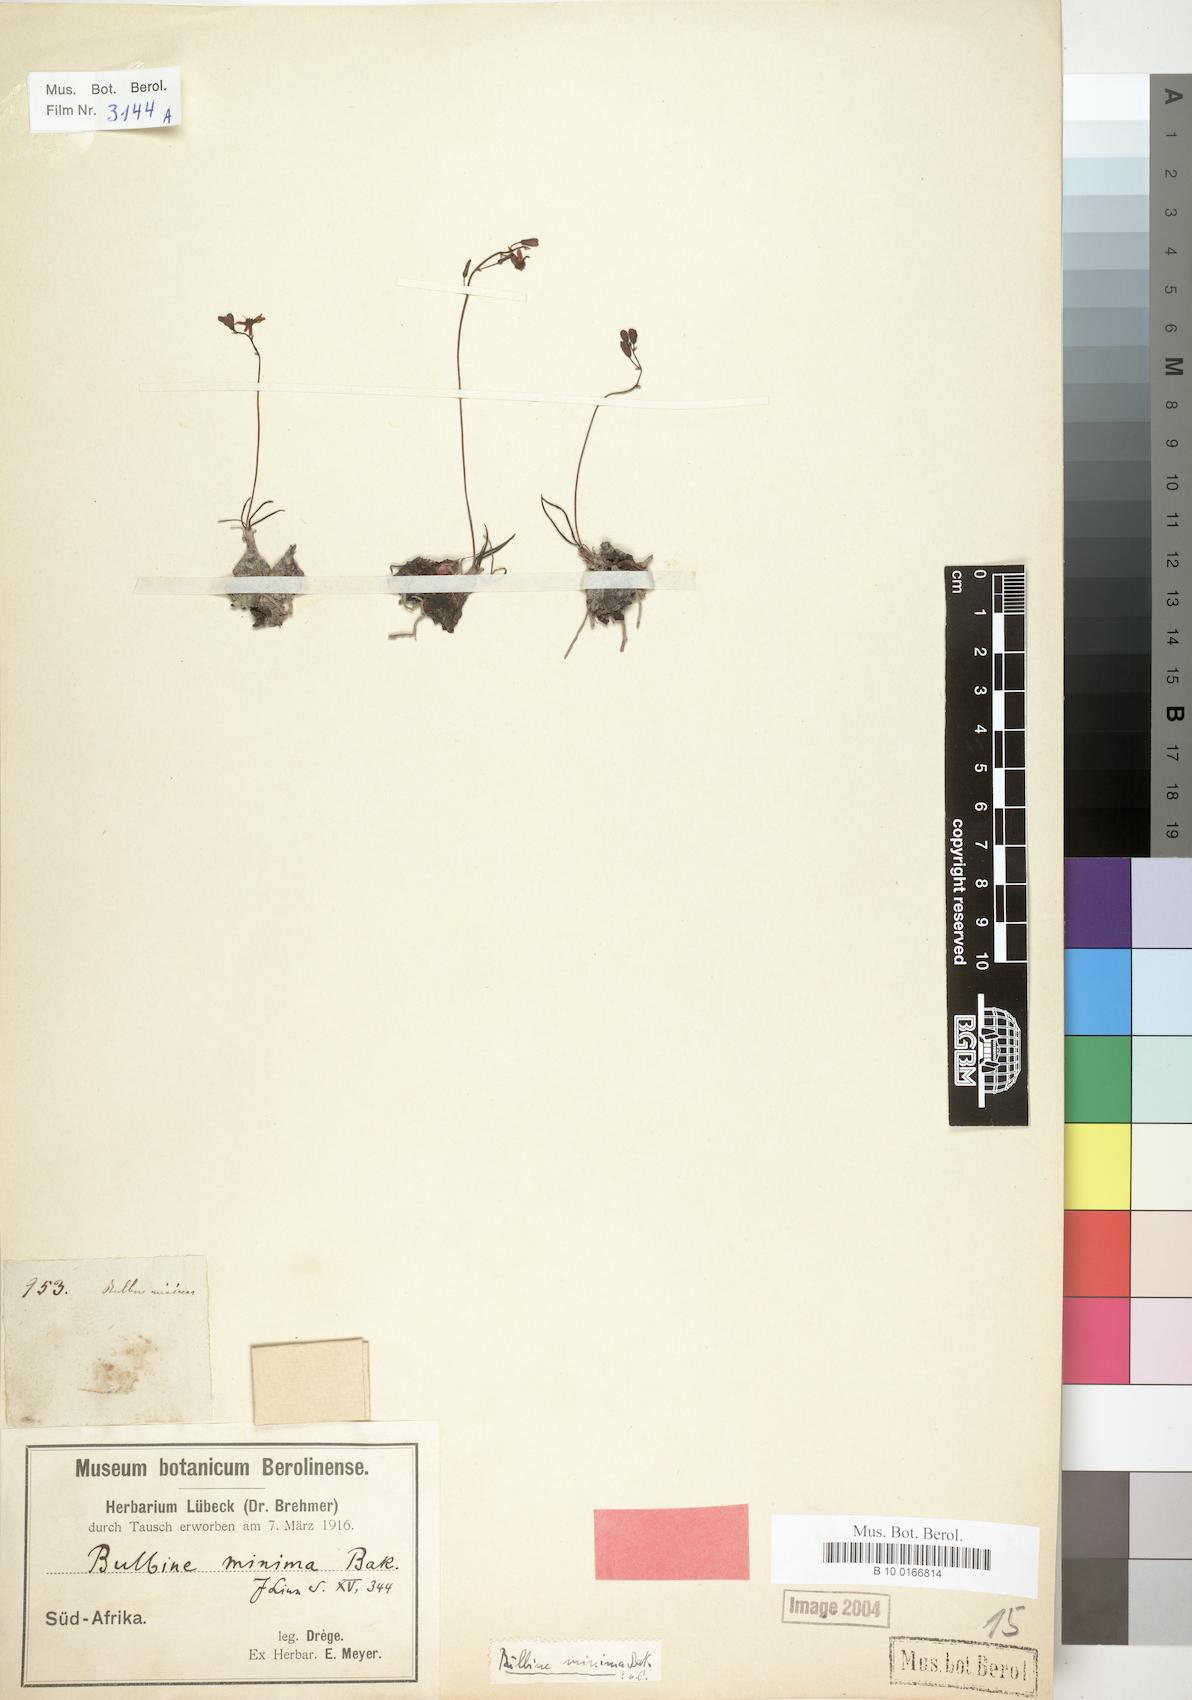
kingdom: Plantae
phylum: Tracheophyta
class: Liliopsida
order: Asparagales
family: Asphodelaceae
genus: Bulbine
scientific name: Bulbine minima
